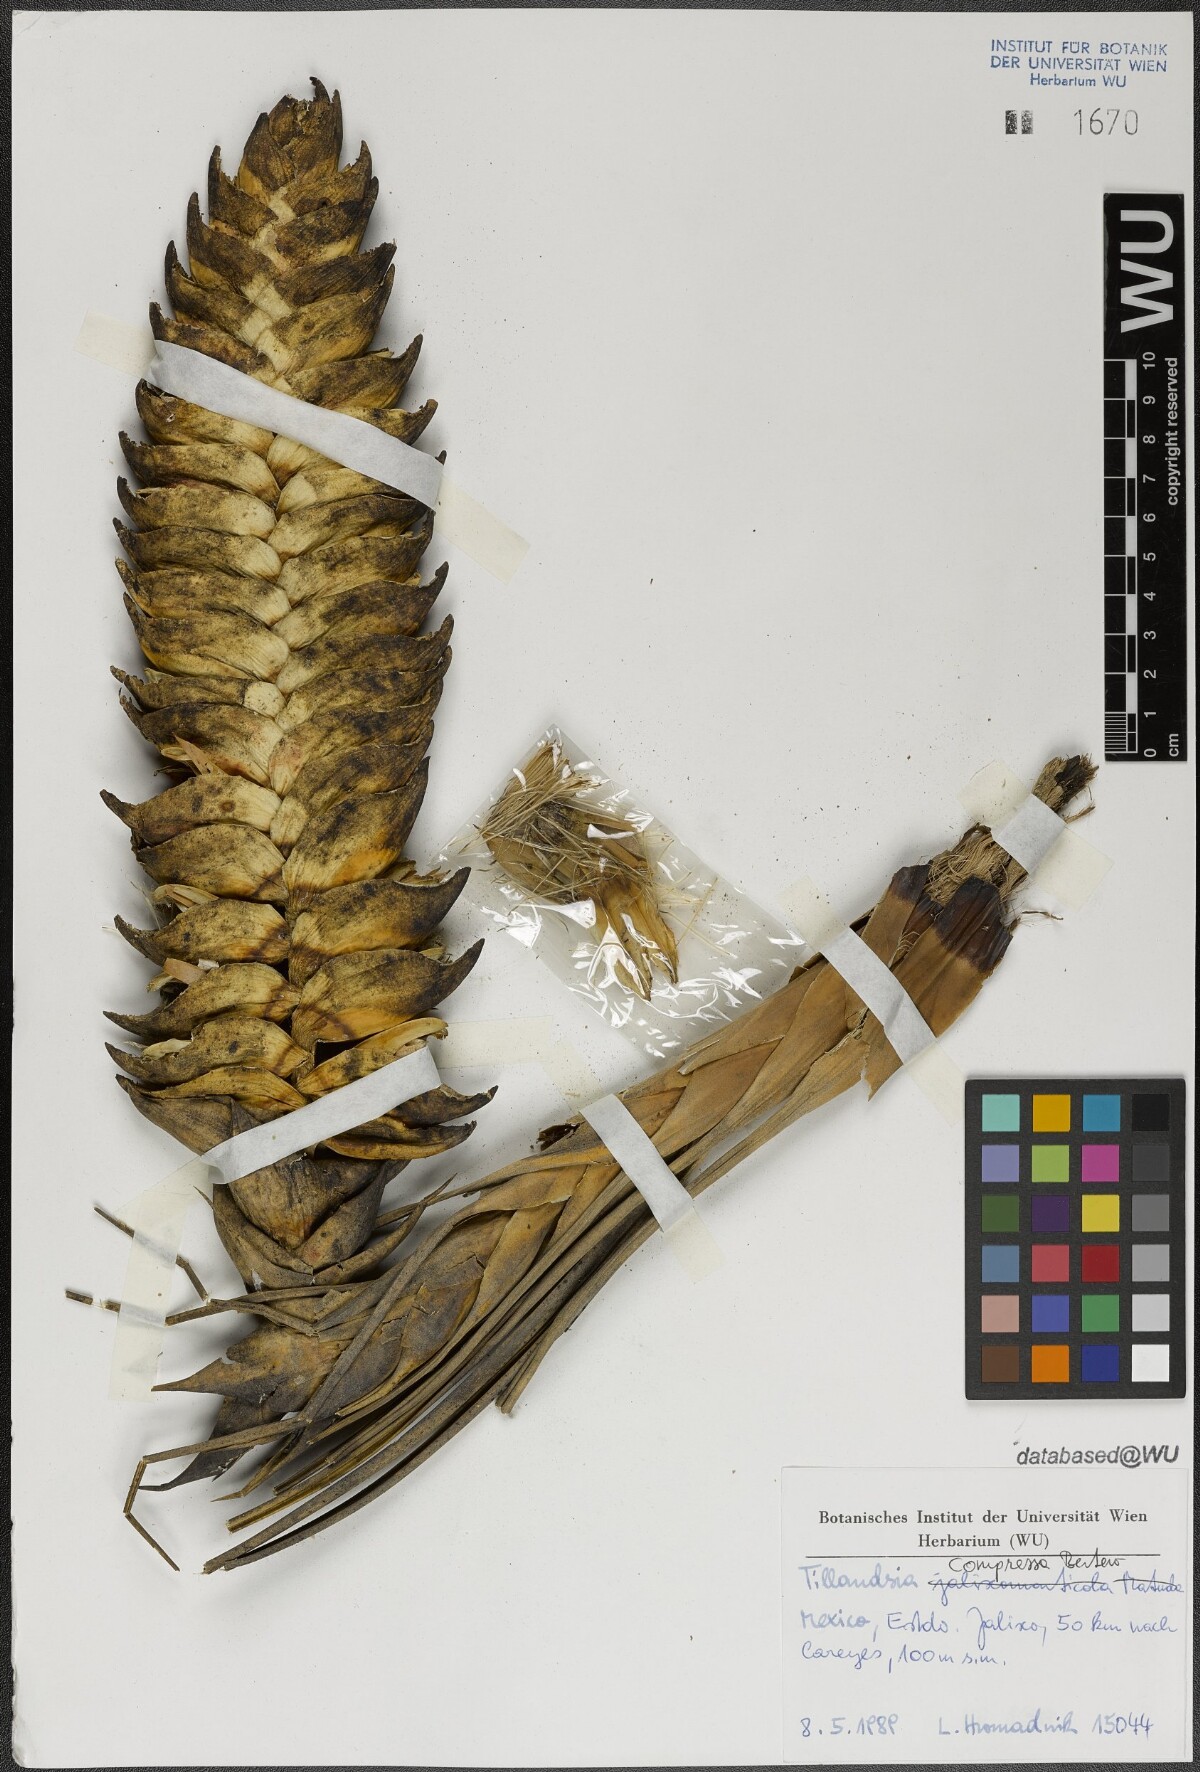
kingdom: Plantae
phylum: Tracheophyta
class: Liliopsida
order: Poales
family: Bromeliaceae
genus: Tillandsia
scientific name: Tillandsia compressa
